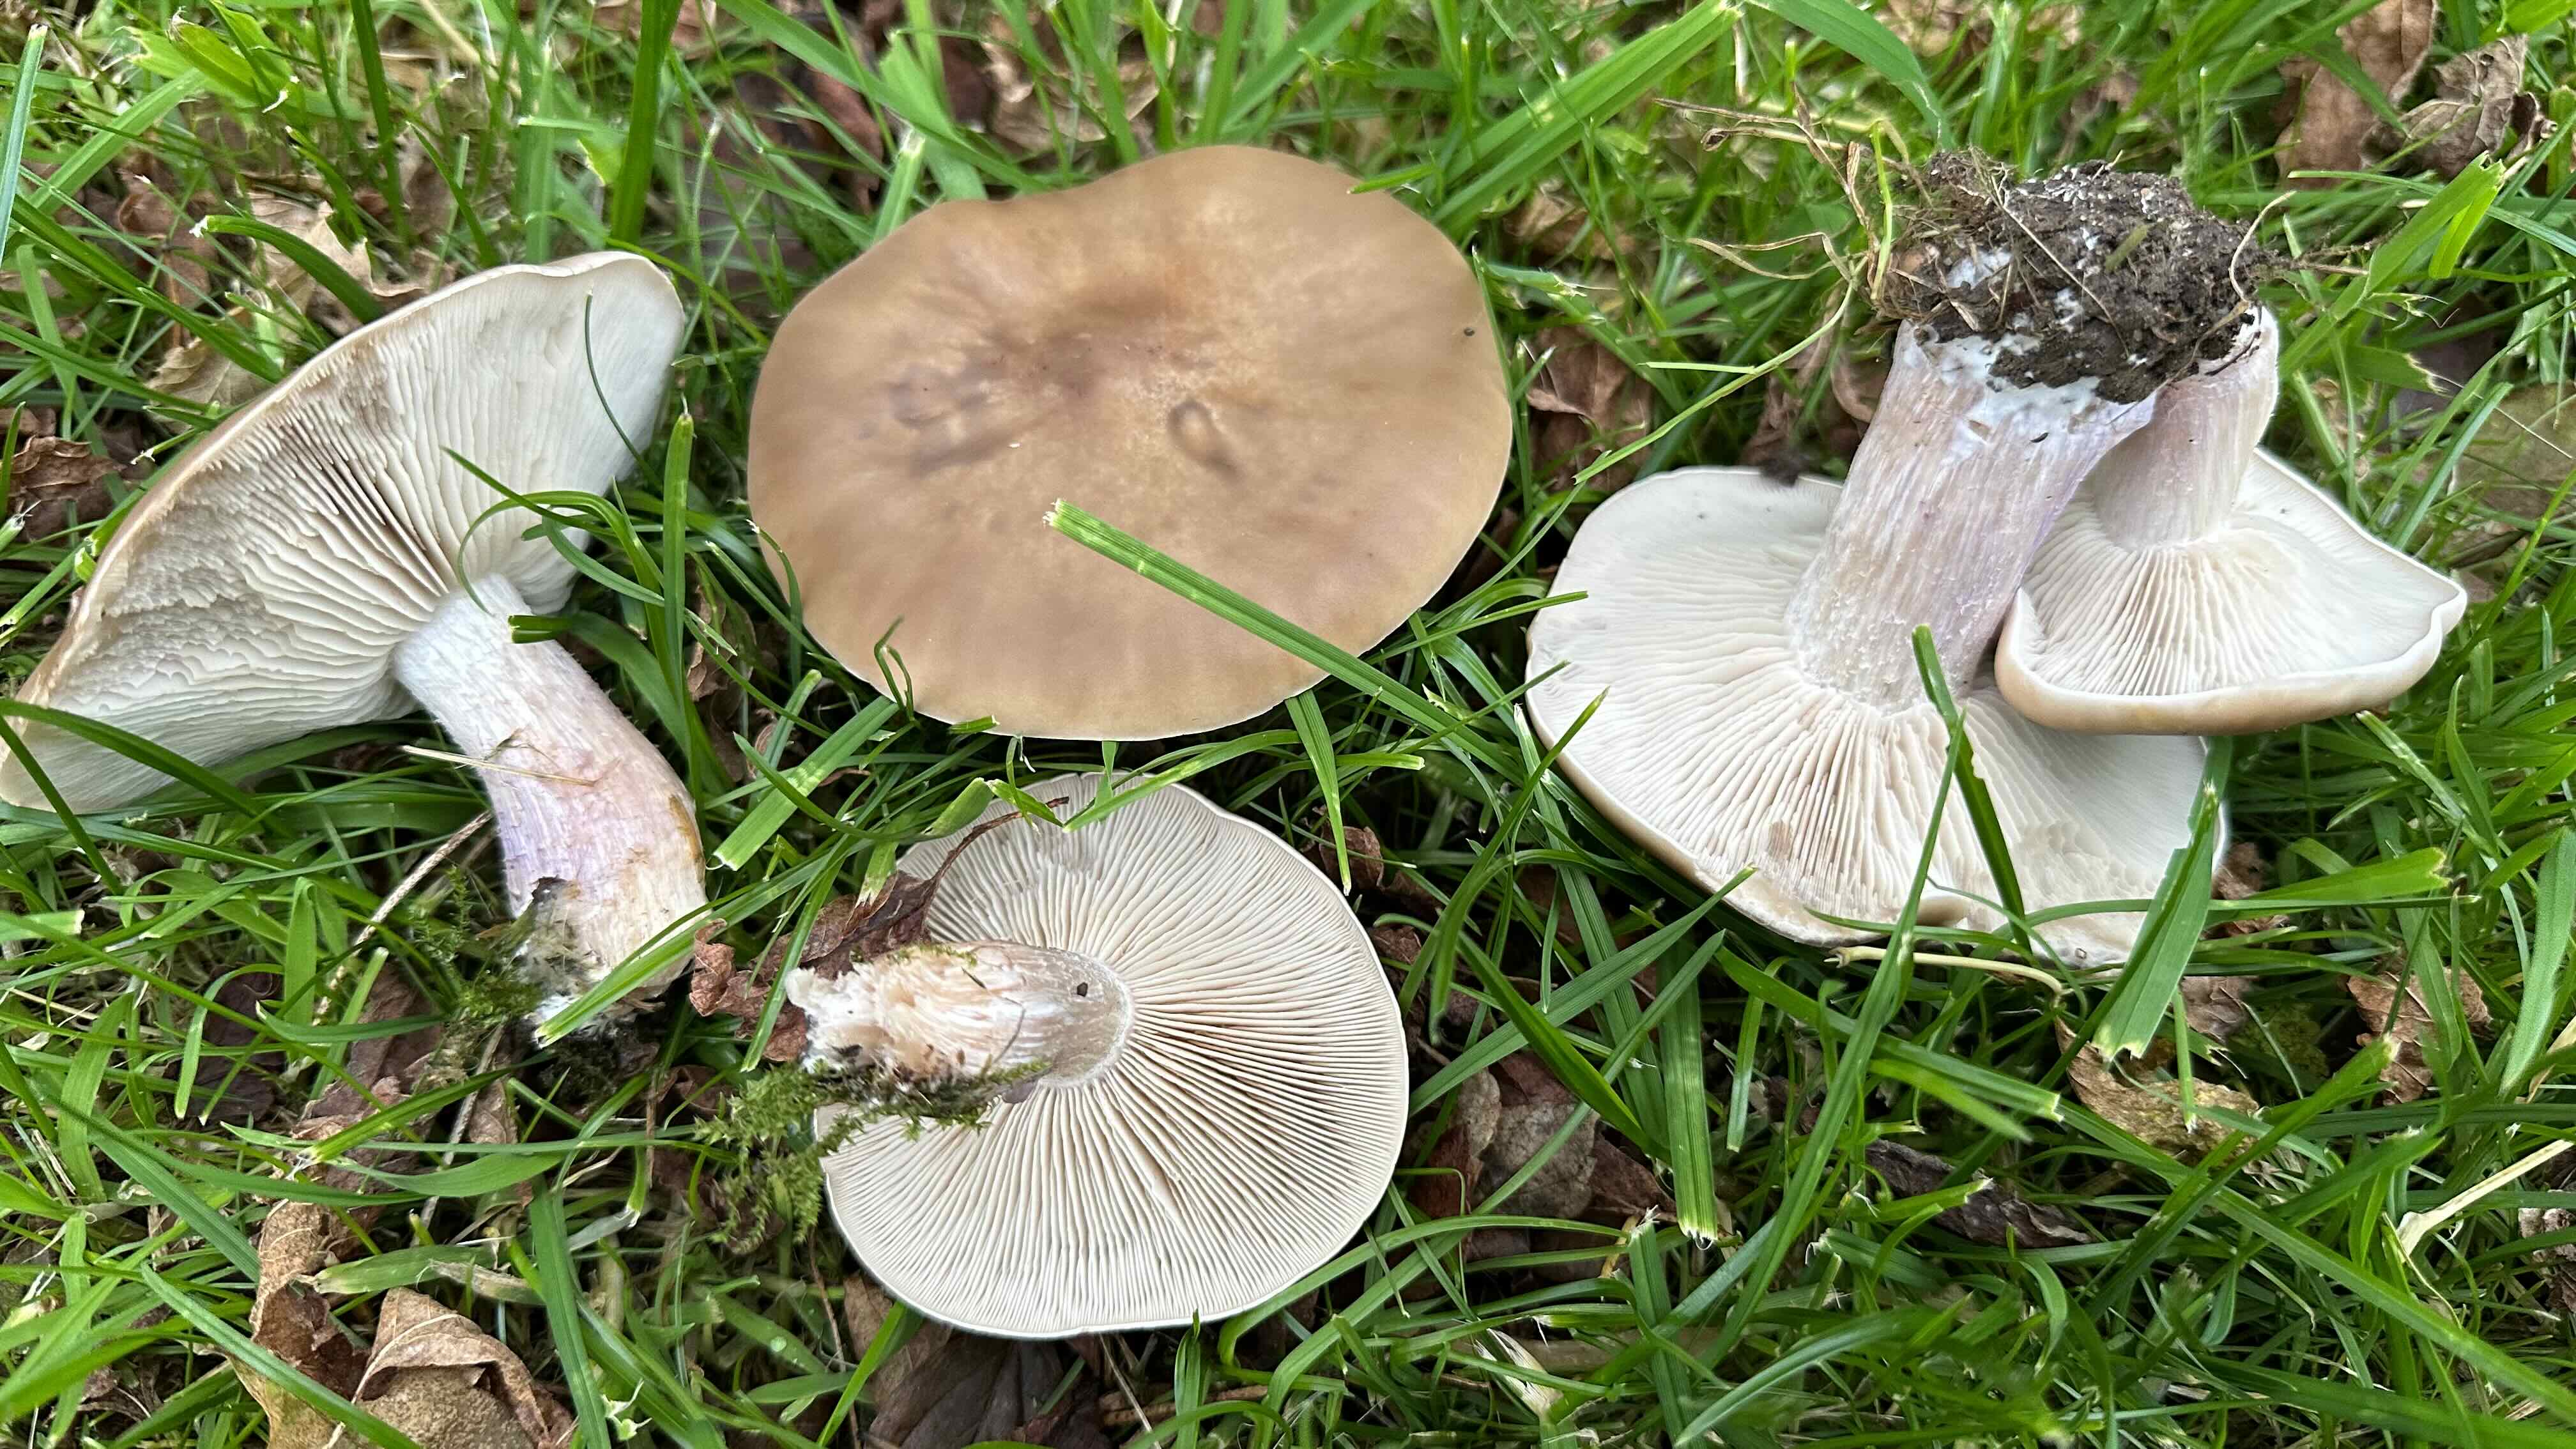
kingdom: Fungi
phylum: Basidiomycota
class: Agaricomycetes
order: Agaricales
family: Tricholomataceae
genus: Lepista
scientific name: Lepista personata
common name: bleg hekseringshat
